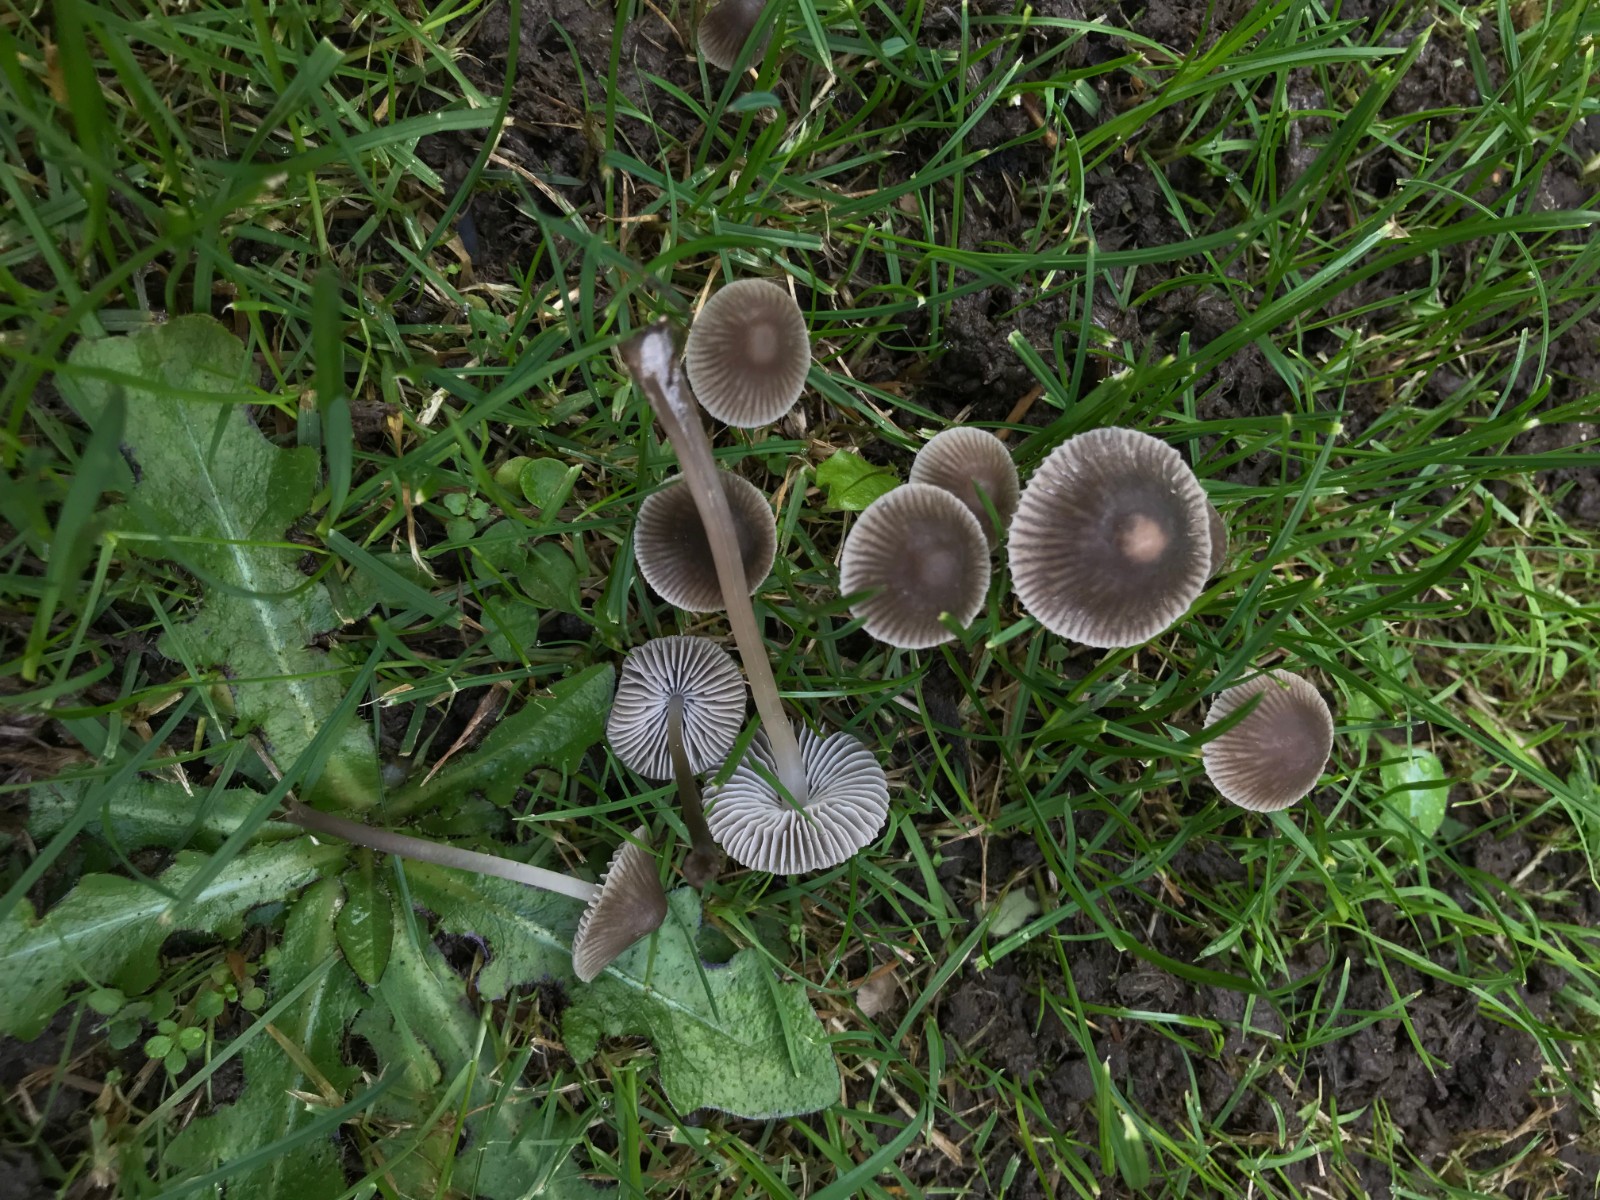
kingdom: Fungi
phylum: Basidiomycota
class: Agaricomycetes
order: Agaricales
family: Mycenaceae
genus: Mycena
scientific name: Mycena aetites
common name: plæne-huesvamp
